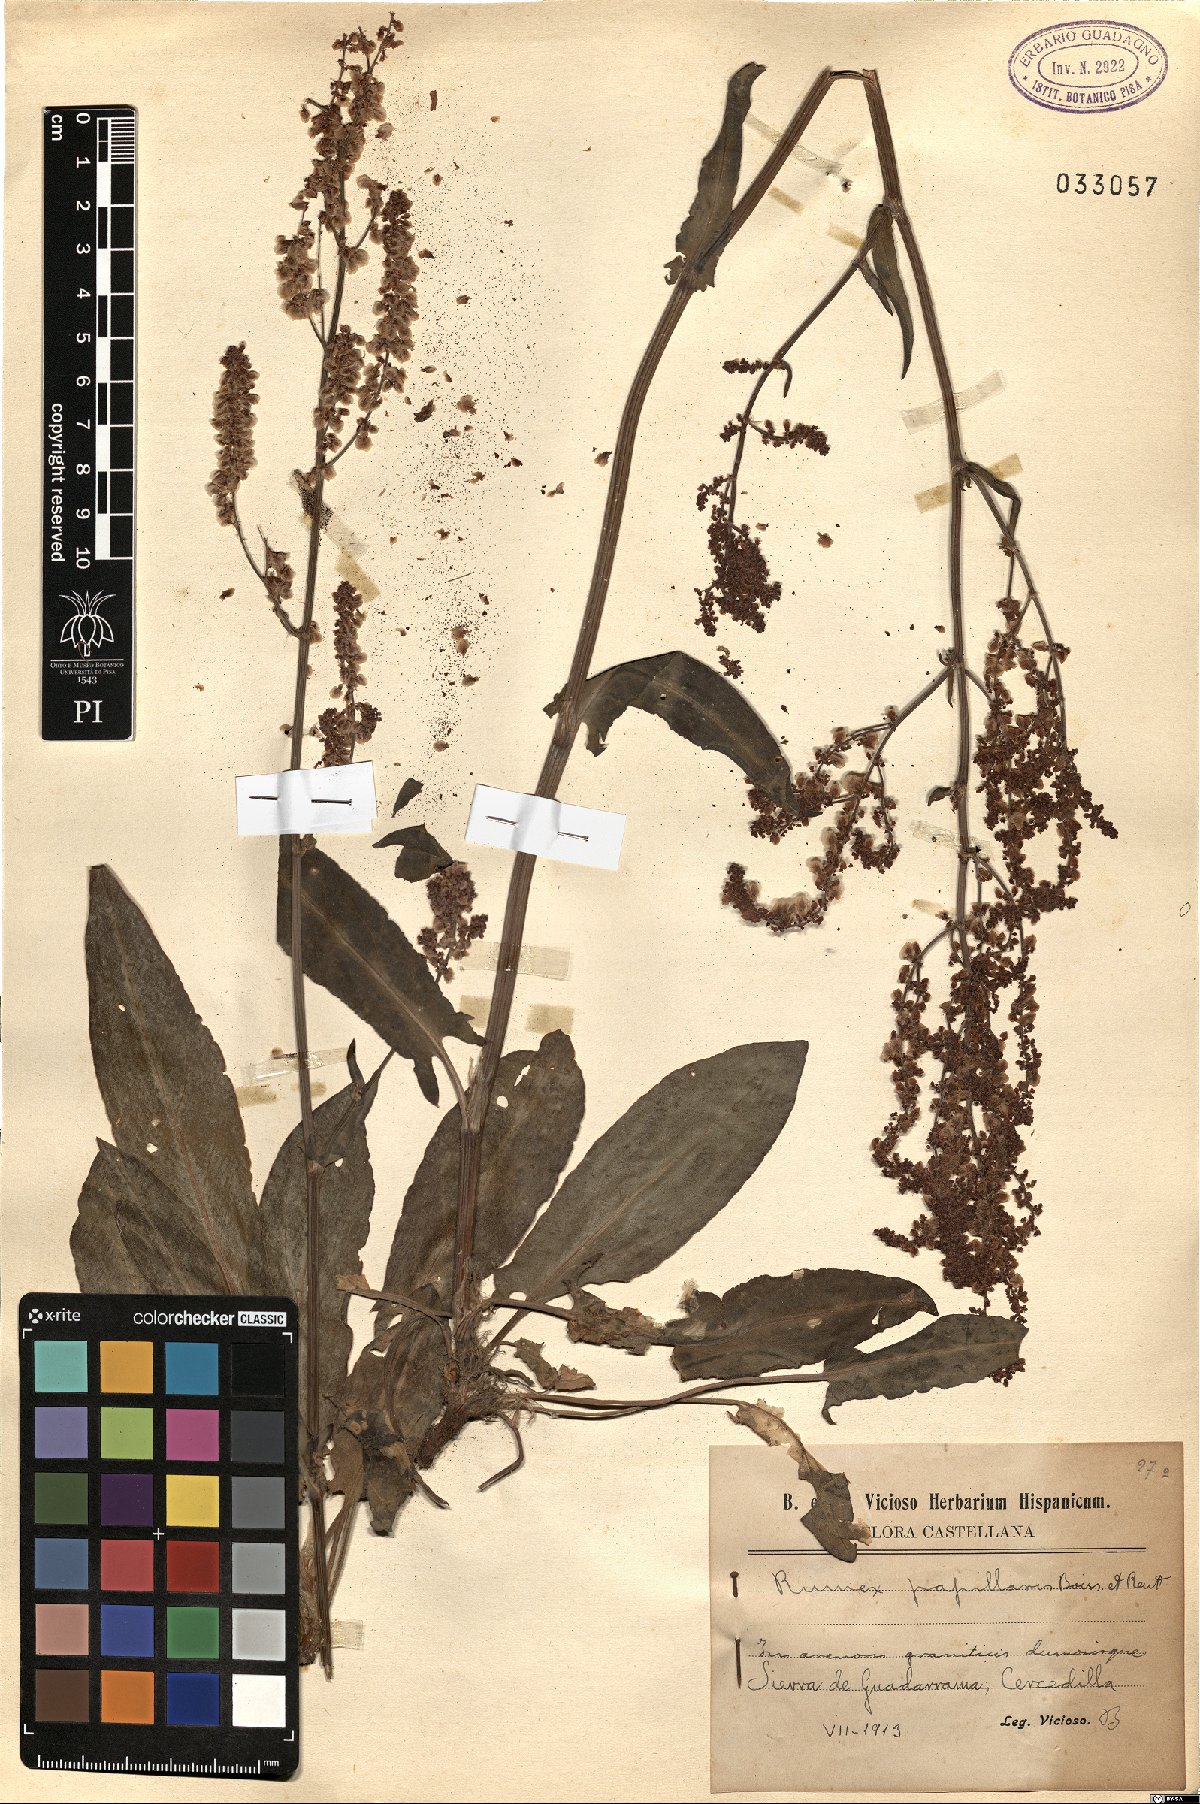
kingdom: Plantae
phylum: Tracheophyta
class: Magnoliopsida
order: Caryophyllales
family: Polygonaceae
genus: Rumex
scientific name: Rumex papillaris
